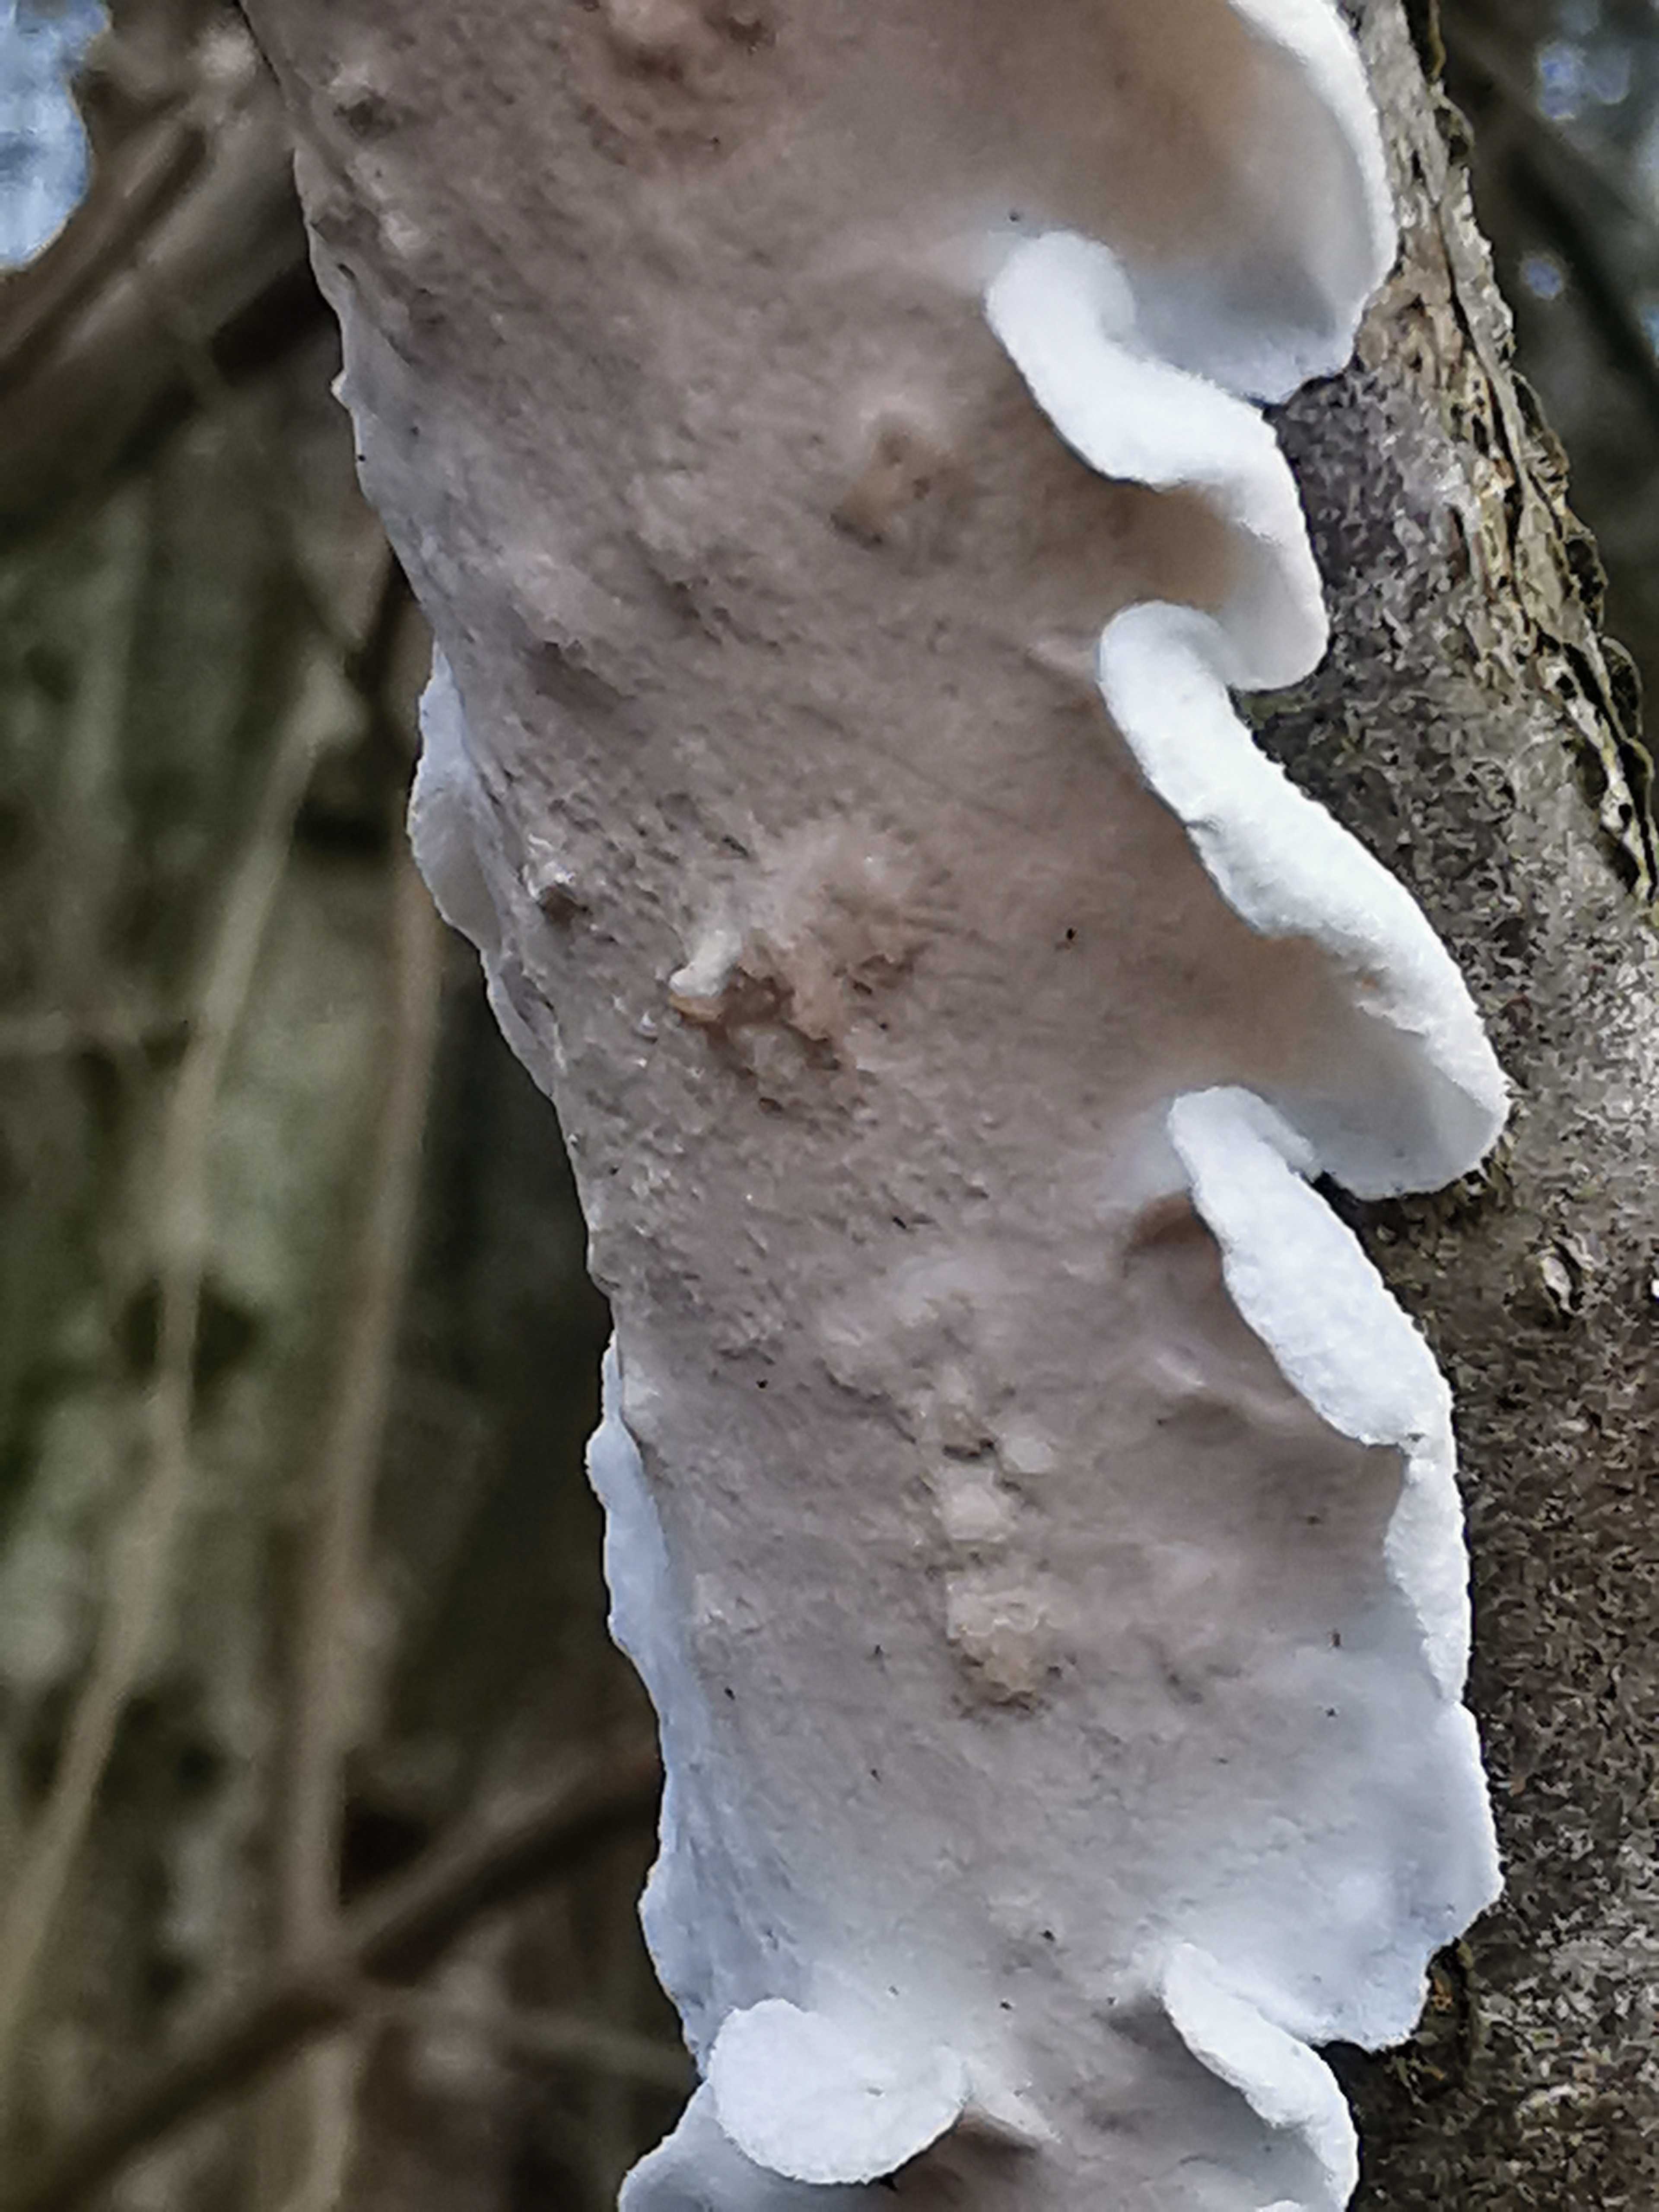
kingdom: Fungi
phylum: Basidiomycota
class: Agaricomycetes
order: Polyporales
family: Irpicaceae
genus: Byssomerulius
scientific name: Byssomerulius corium
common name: læder-åresvamp
